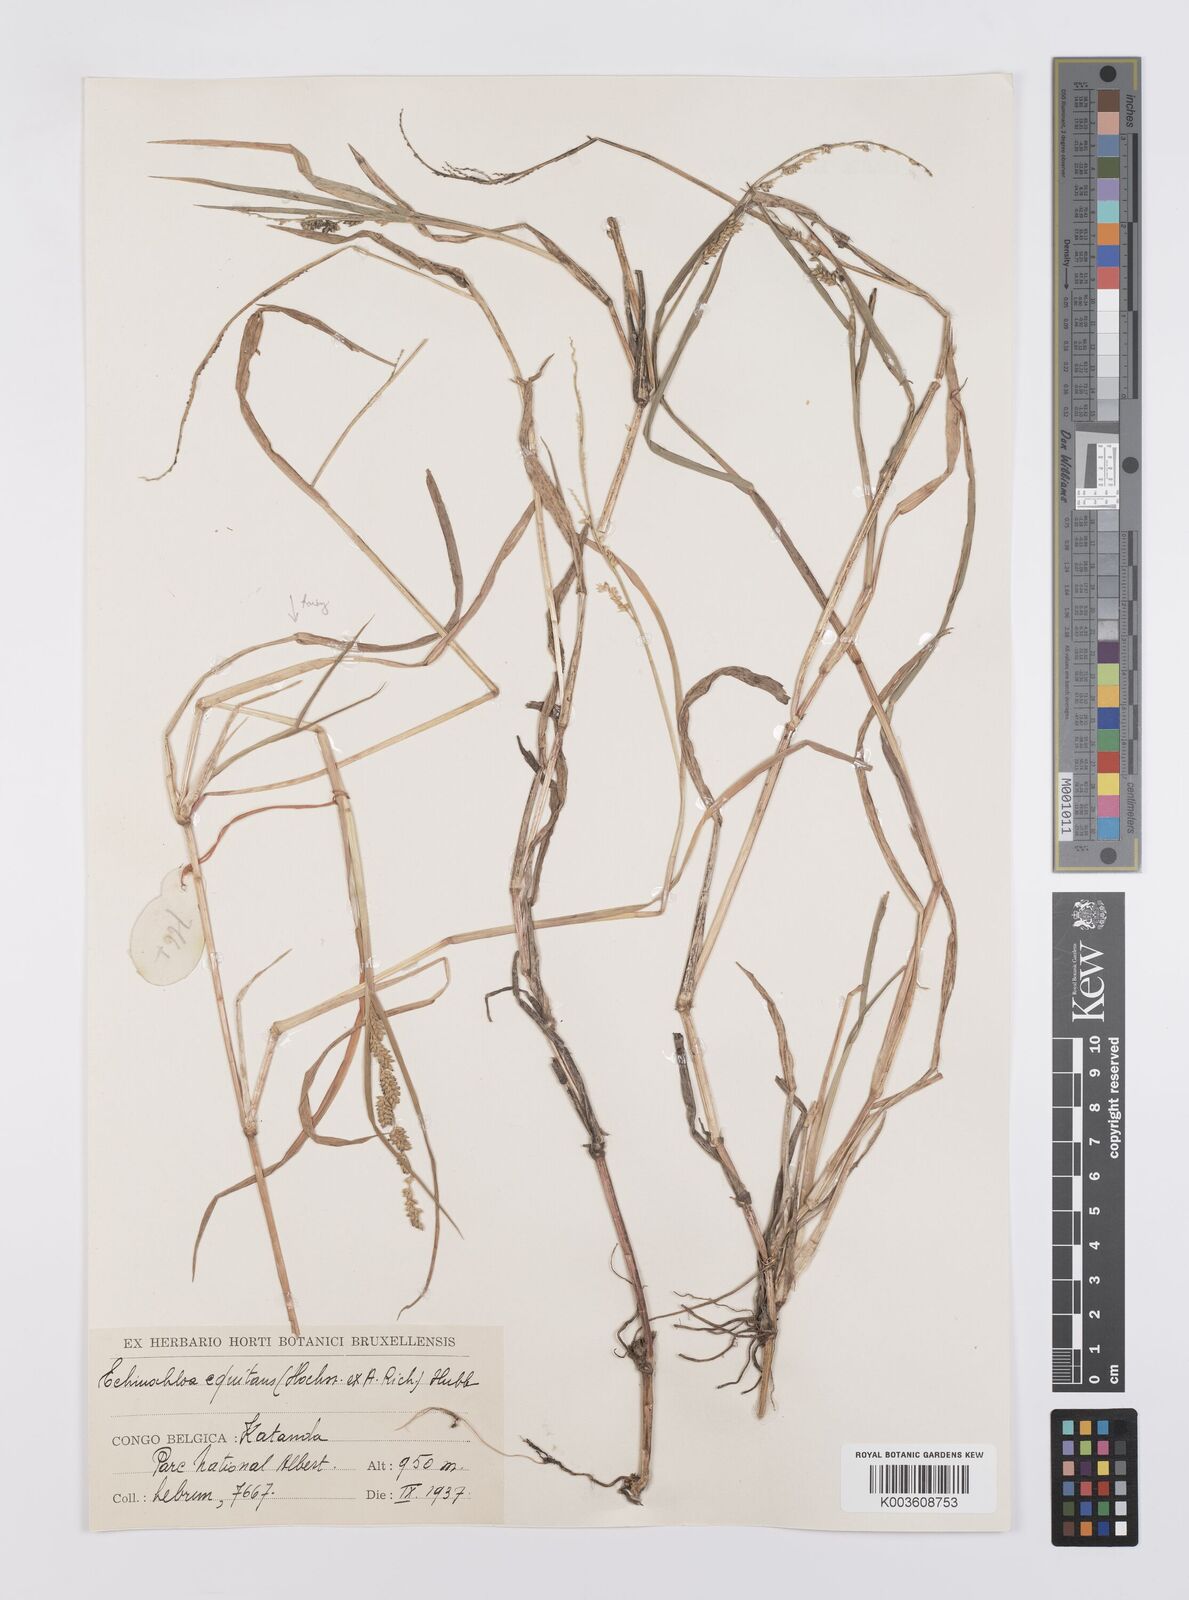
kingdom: Plantae
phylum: Tracheophyta
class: Liliopsida
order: Poales
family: Poaceae
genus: Echinochloa
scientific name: Echinochloa pyramidalis
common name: Antelope grass
